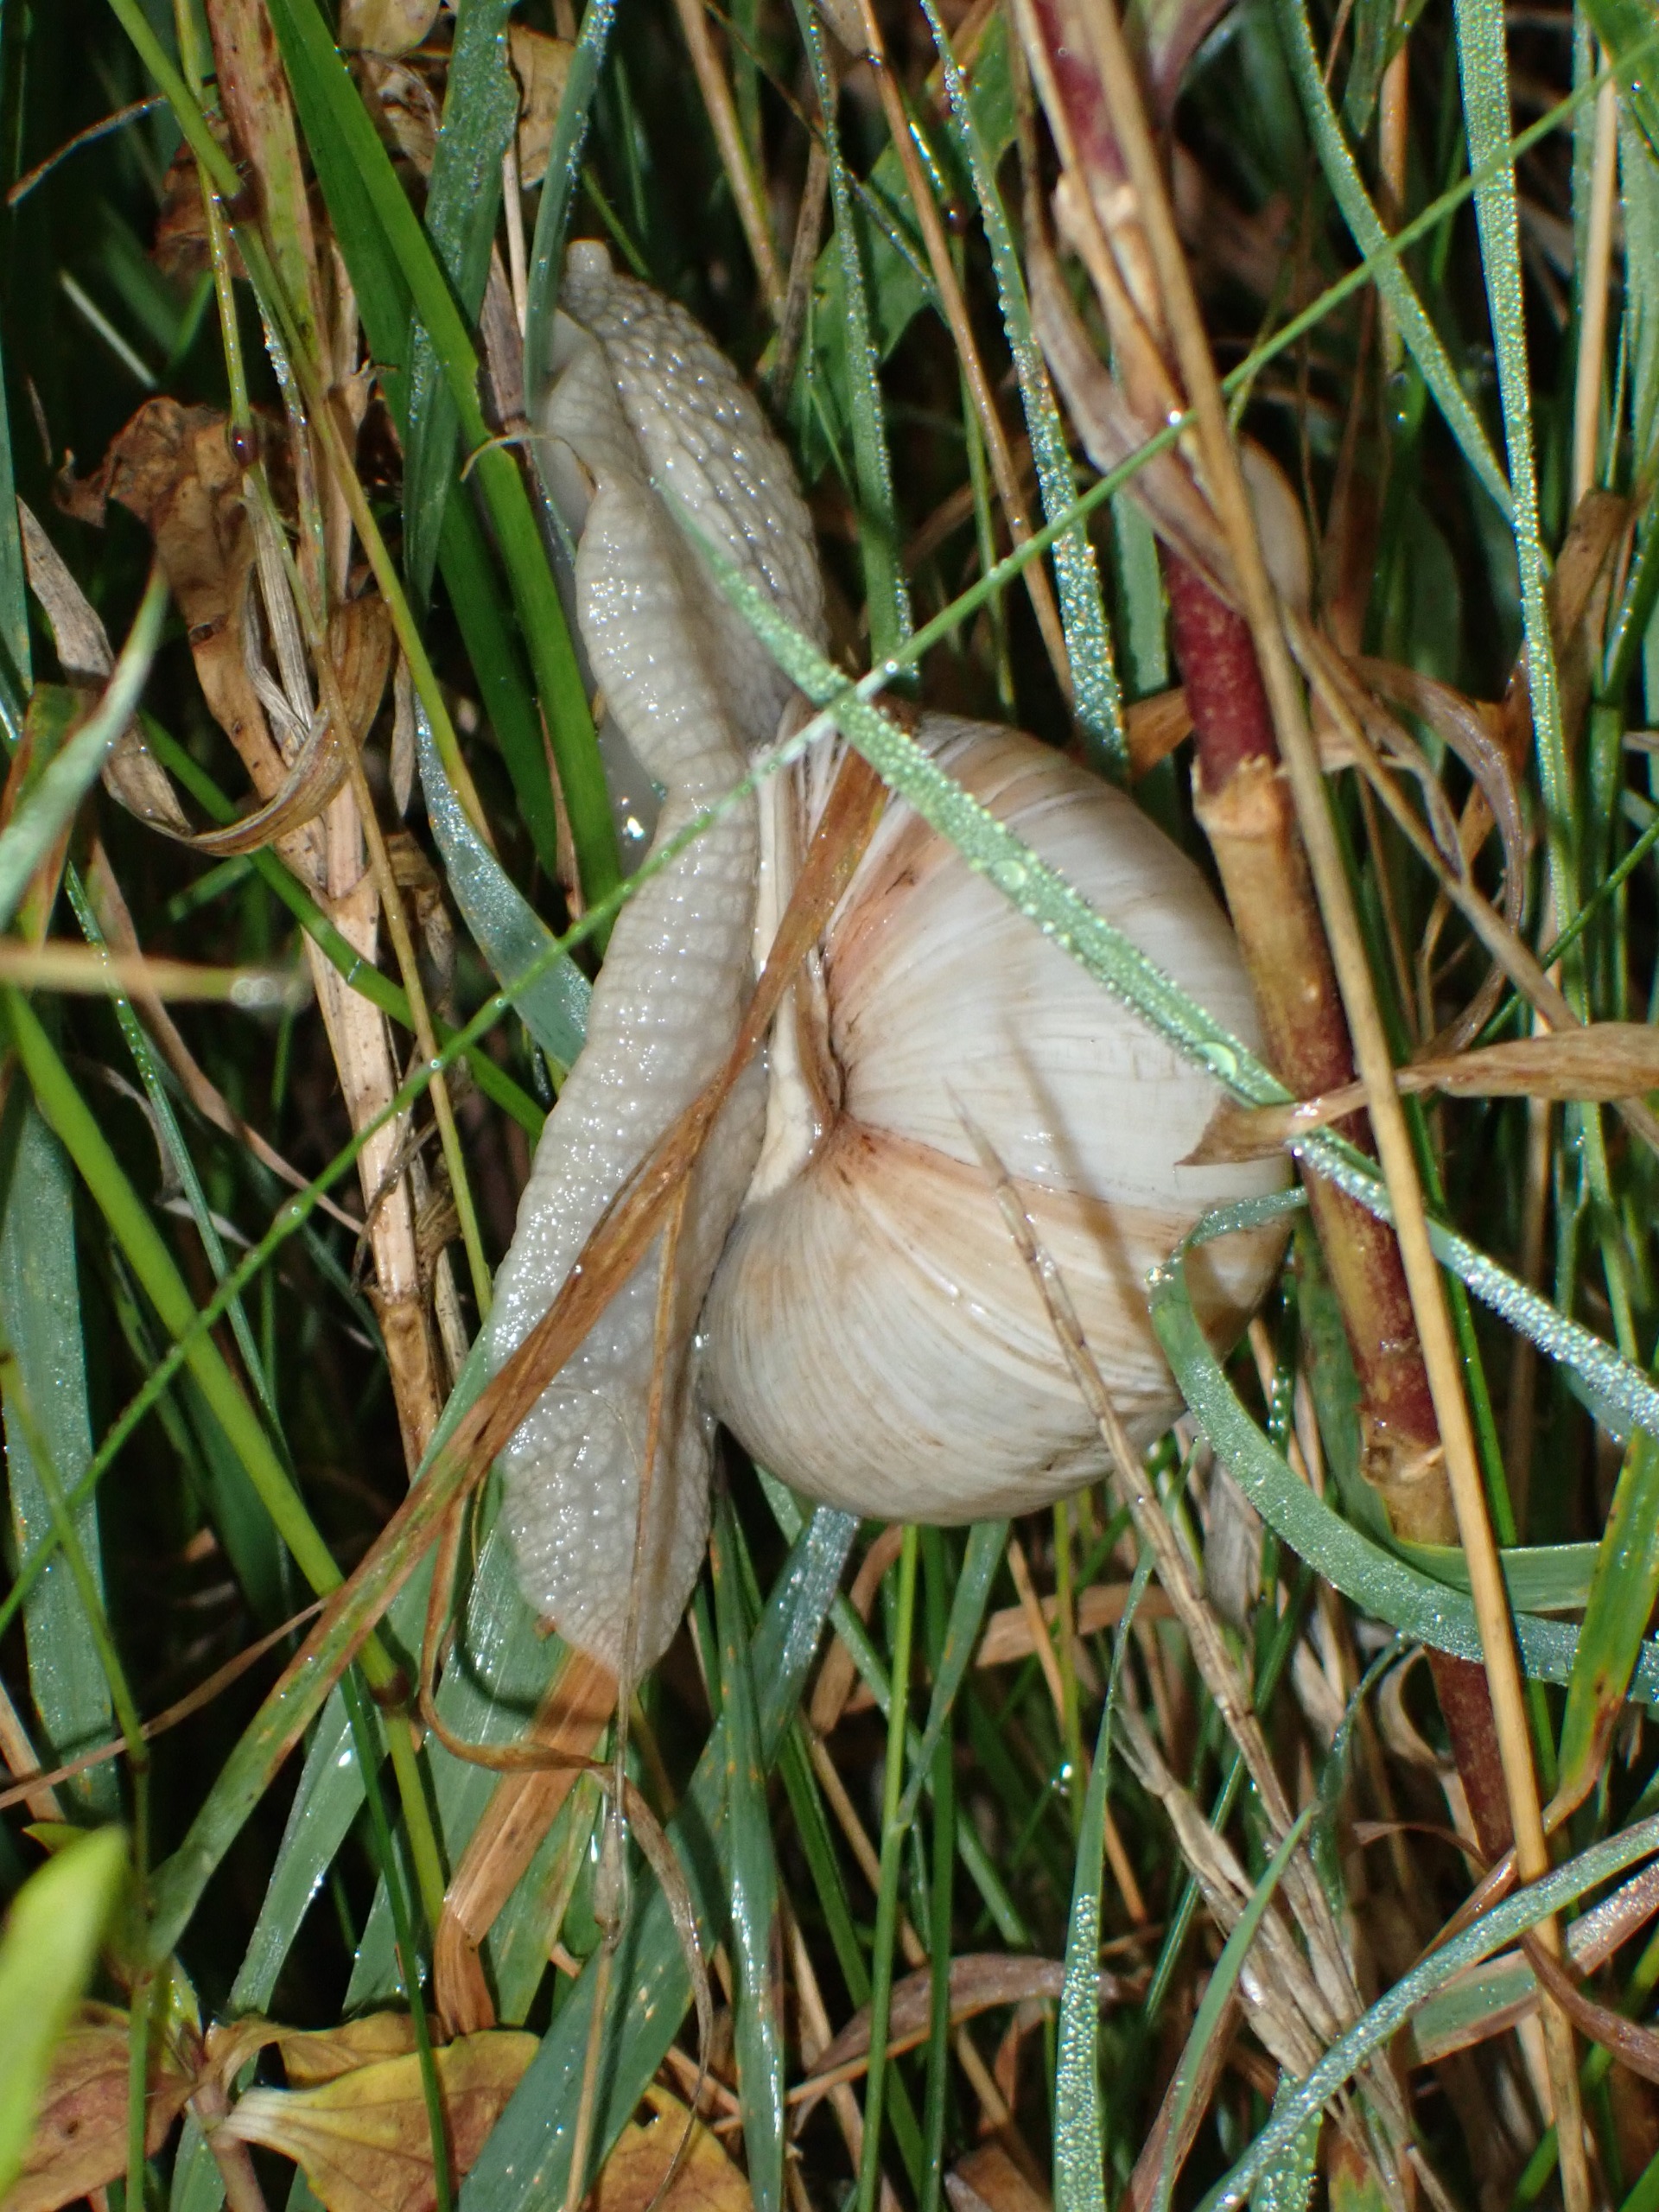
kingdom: Animalia
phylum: Mollusca
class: Gastropoda
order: Stylommatophora
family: Helicidae
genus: Helix
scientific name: Helix pomatia
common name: Vinbjergsnegl
